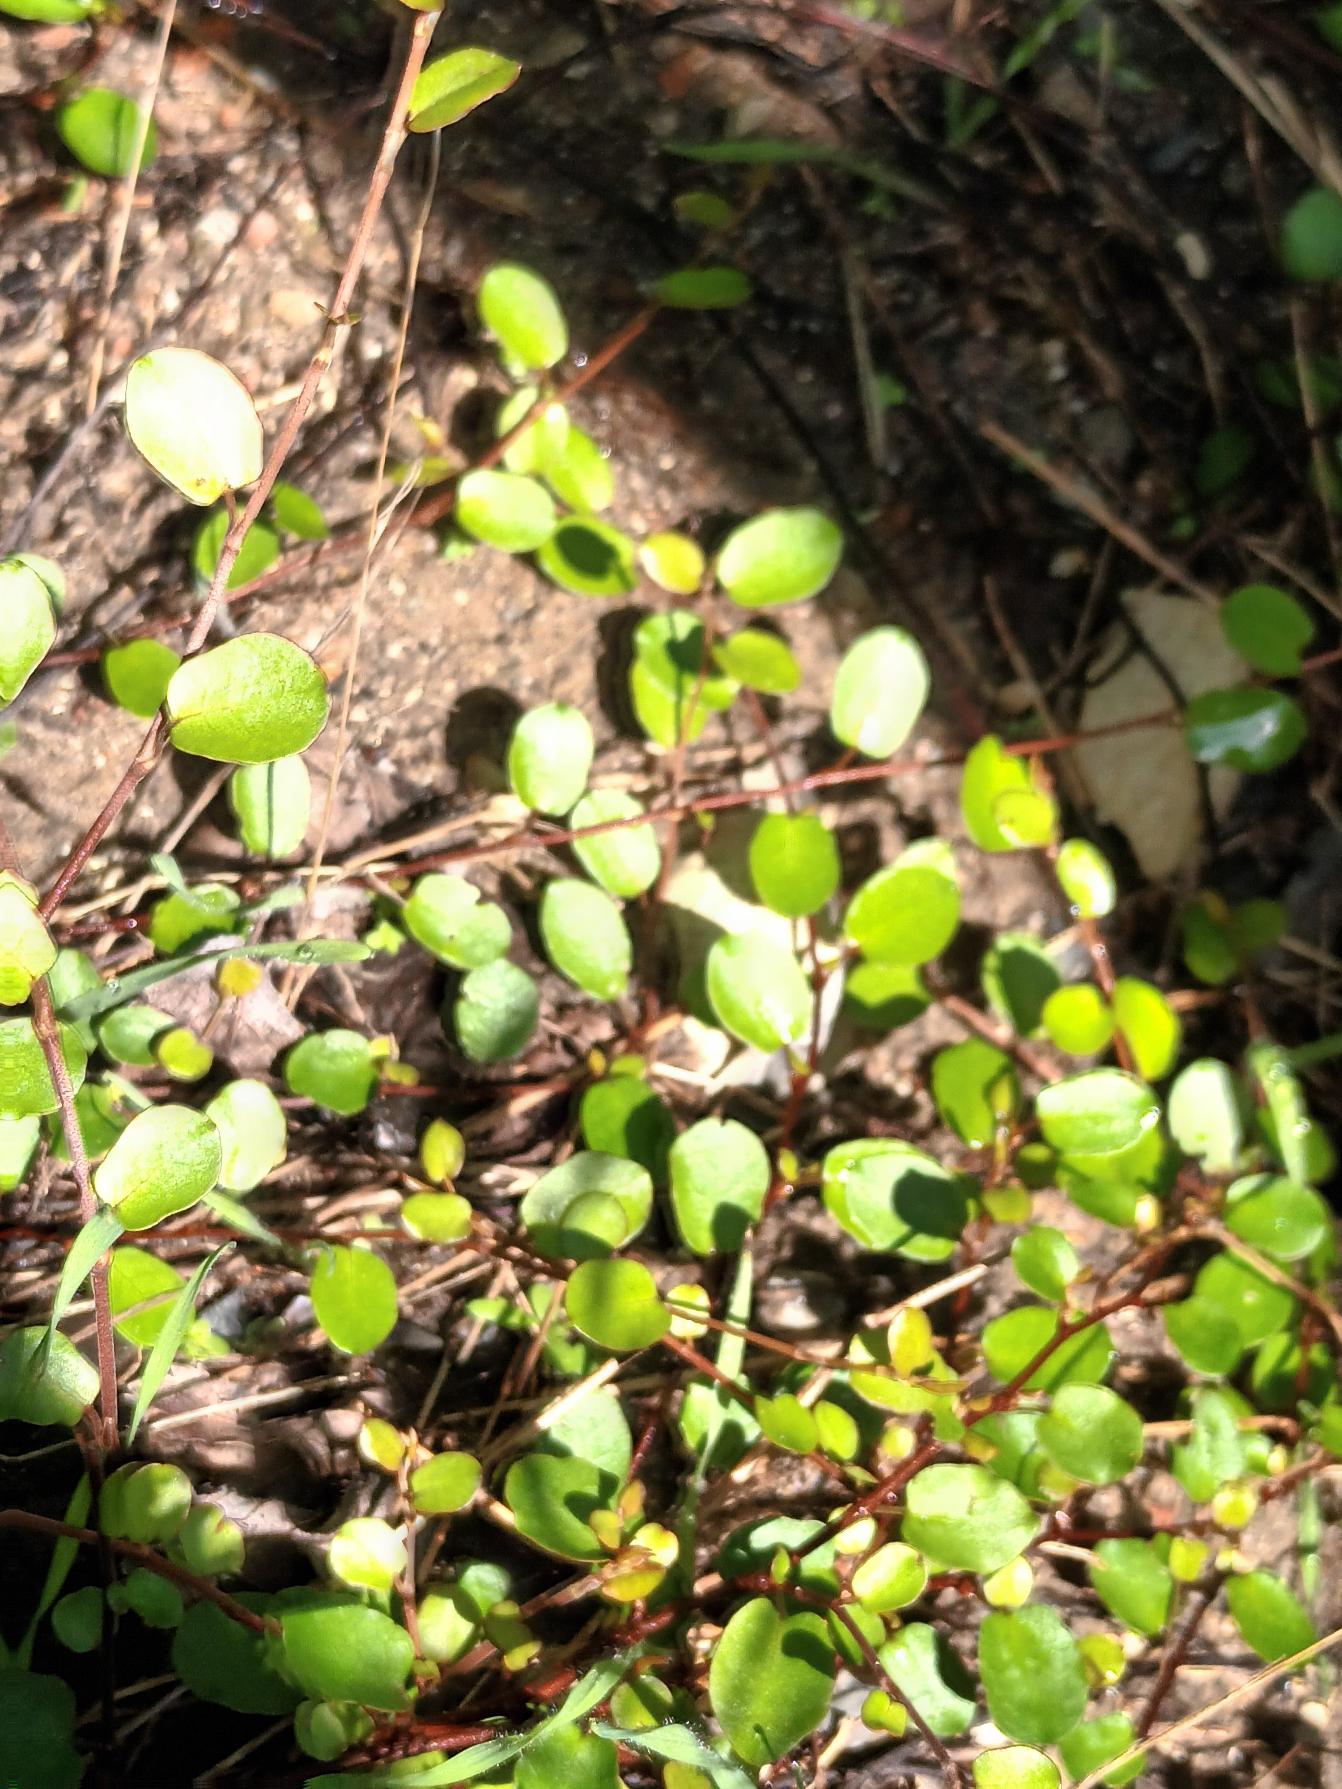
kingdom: Plantae
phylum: Tracheophyta
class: Magnoliopsida
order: Caryophyllales
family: Polygonaceae
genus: Muehlenbeckia
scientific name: Muehlenbeckia axillaris
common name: Prikker i luften
